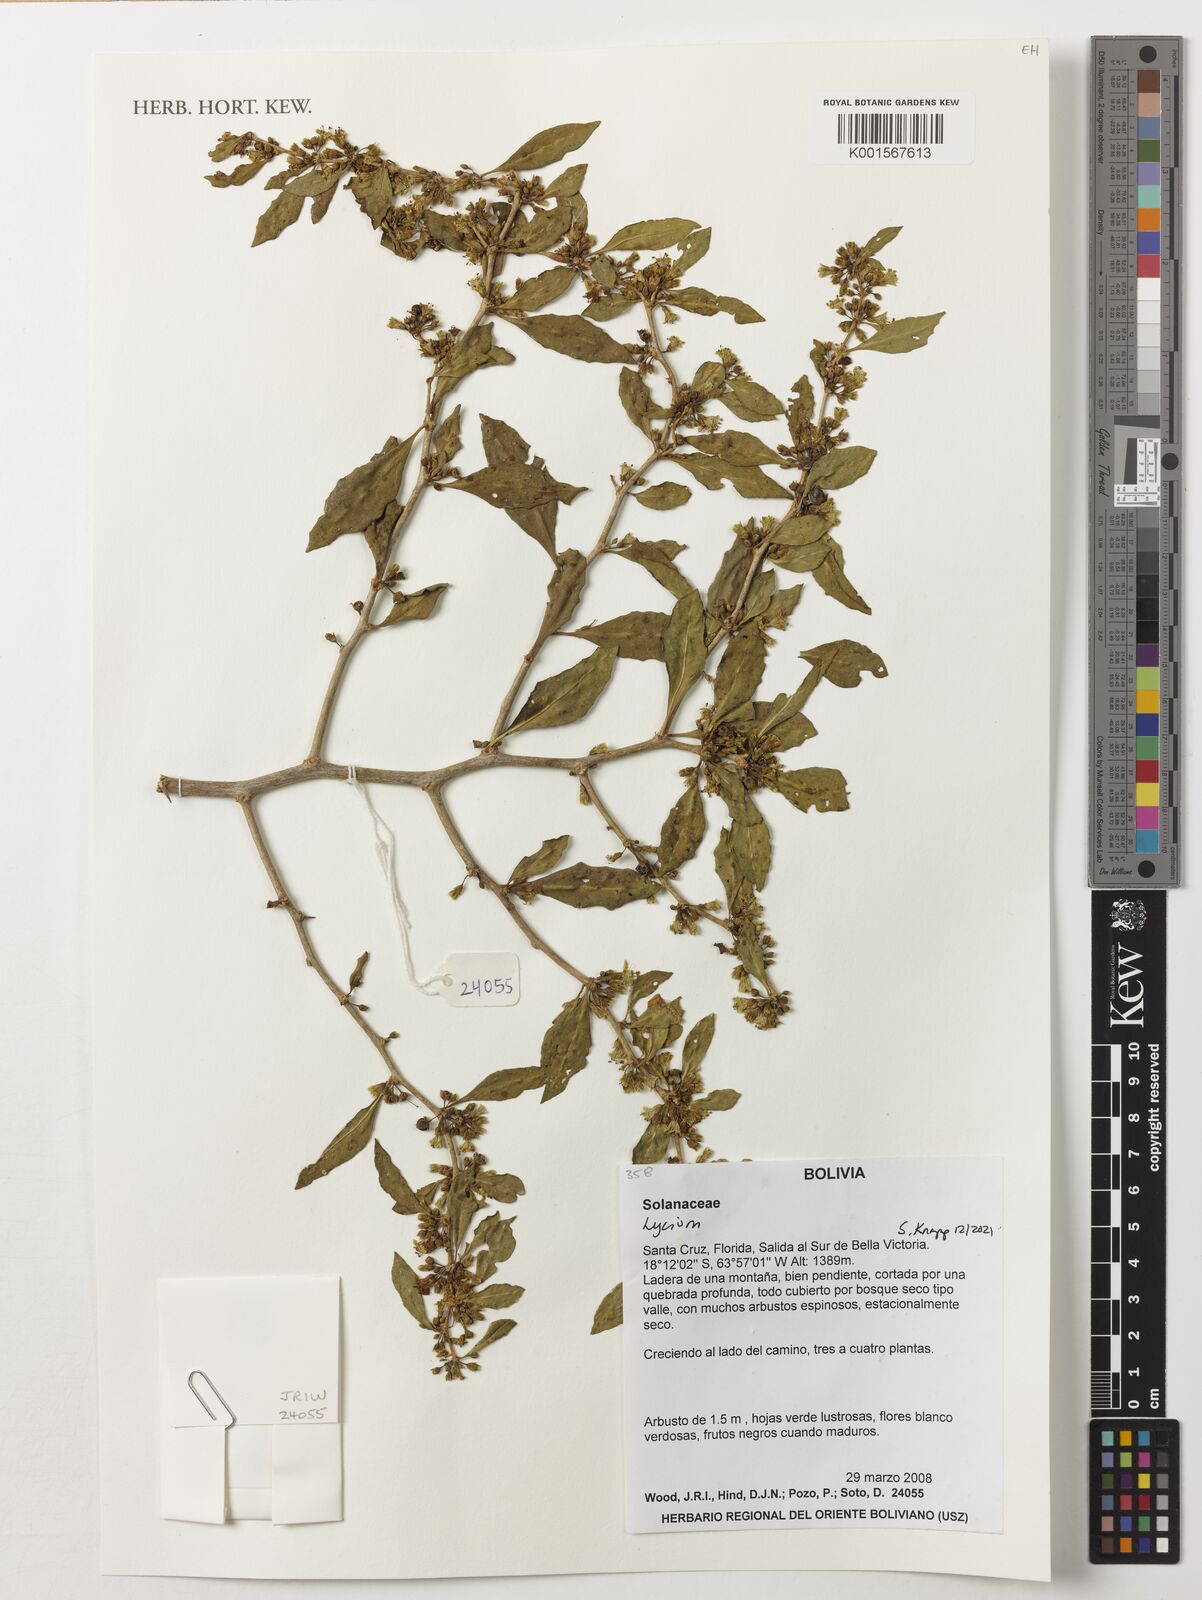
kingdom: Plantae
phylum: Tracheophyta
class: Magnoliopsida
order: Solanales
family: Solanaceae
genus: Lycium
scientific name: Lycium
